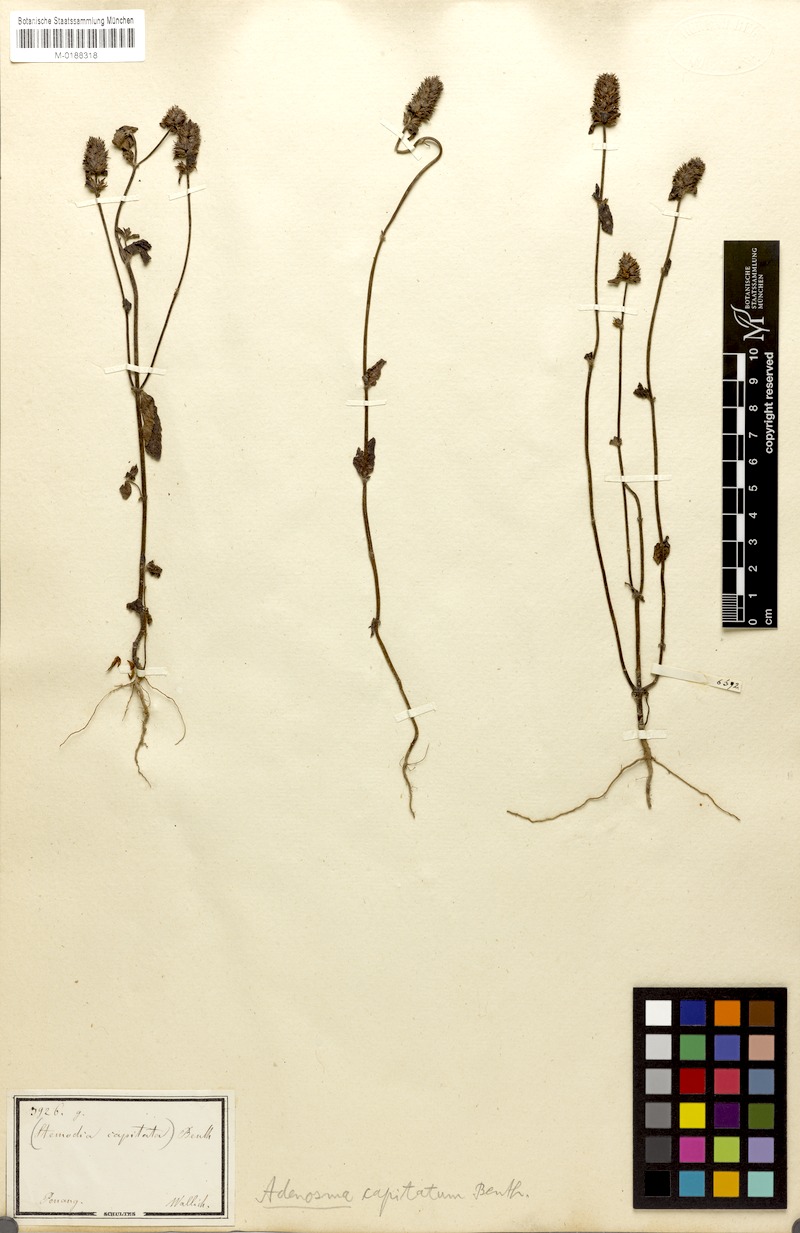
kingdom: Plantae
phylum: Tracheophyta
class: Magnoliopsida
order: Lamiales
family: Plantaginaceae
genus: Adenosma
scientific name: Adenosma indiana
